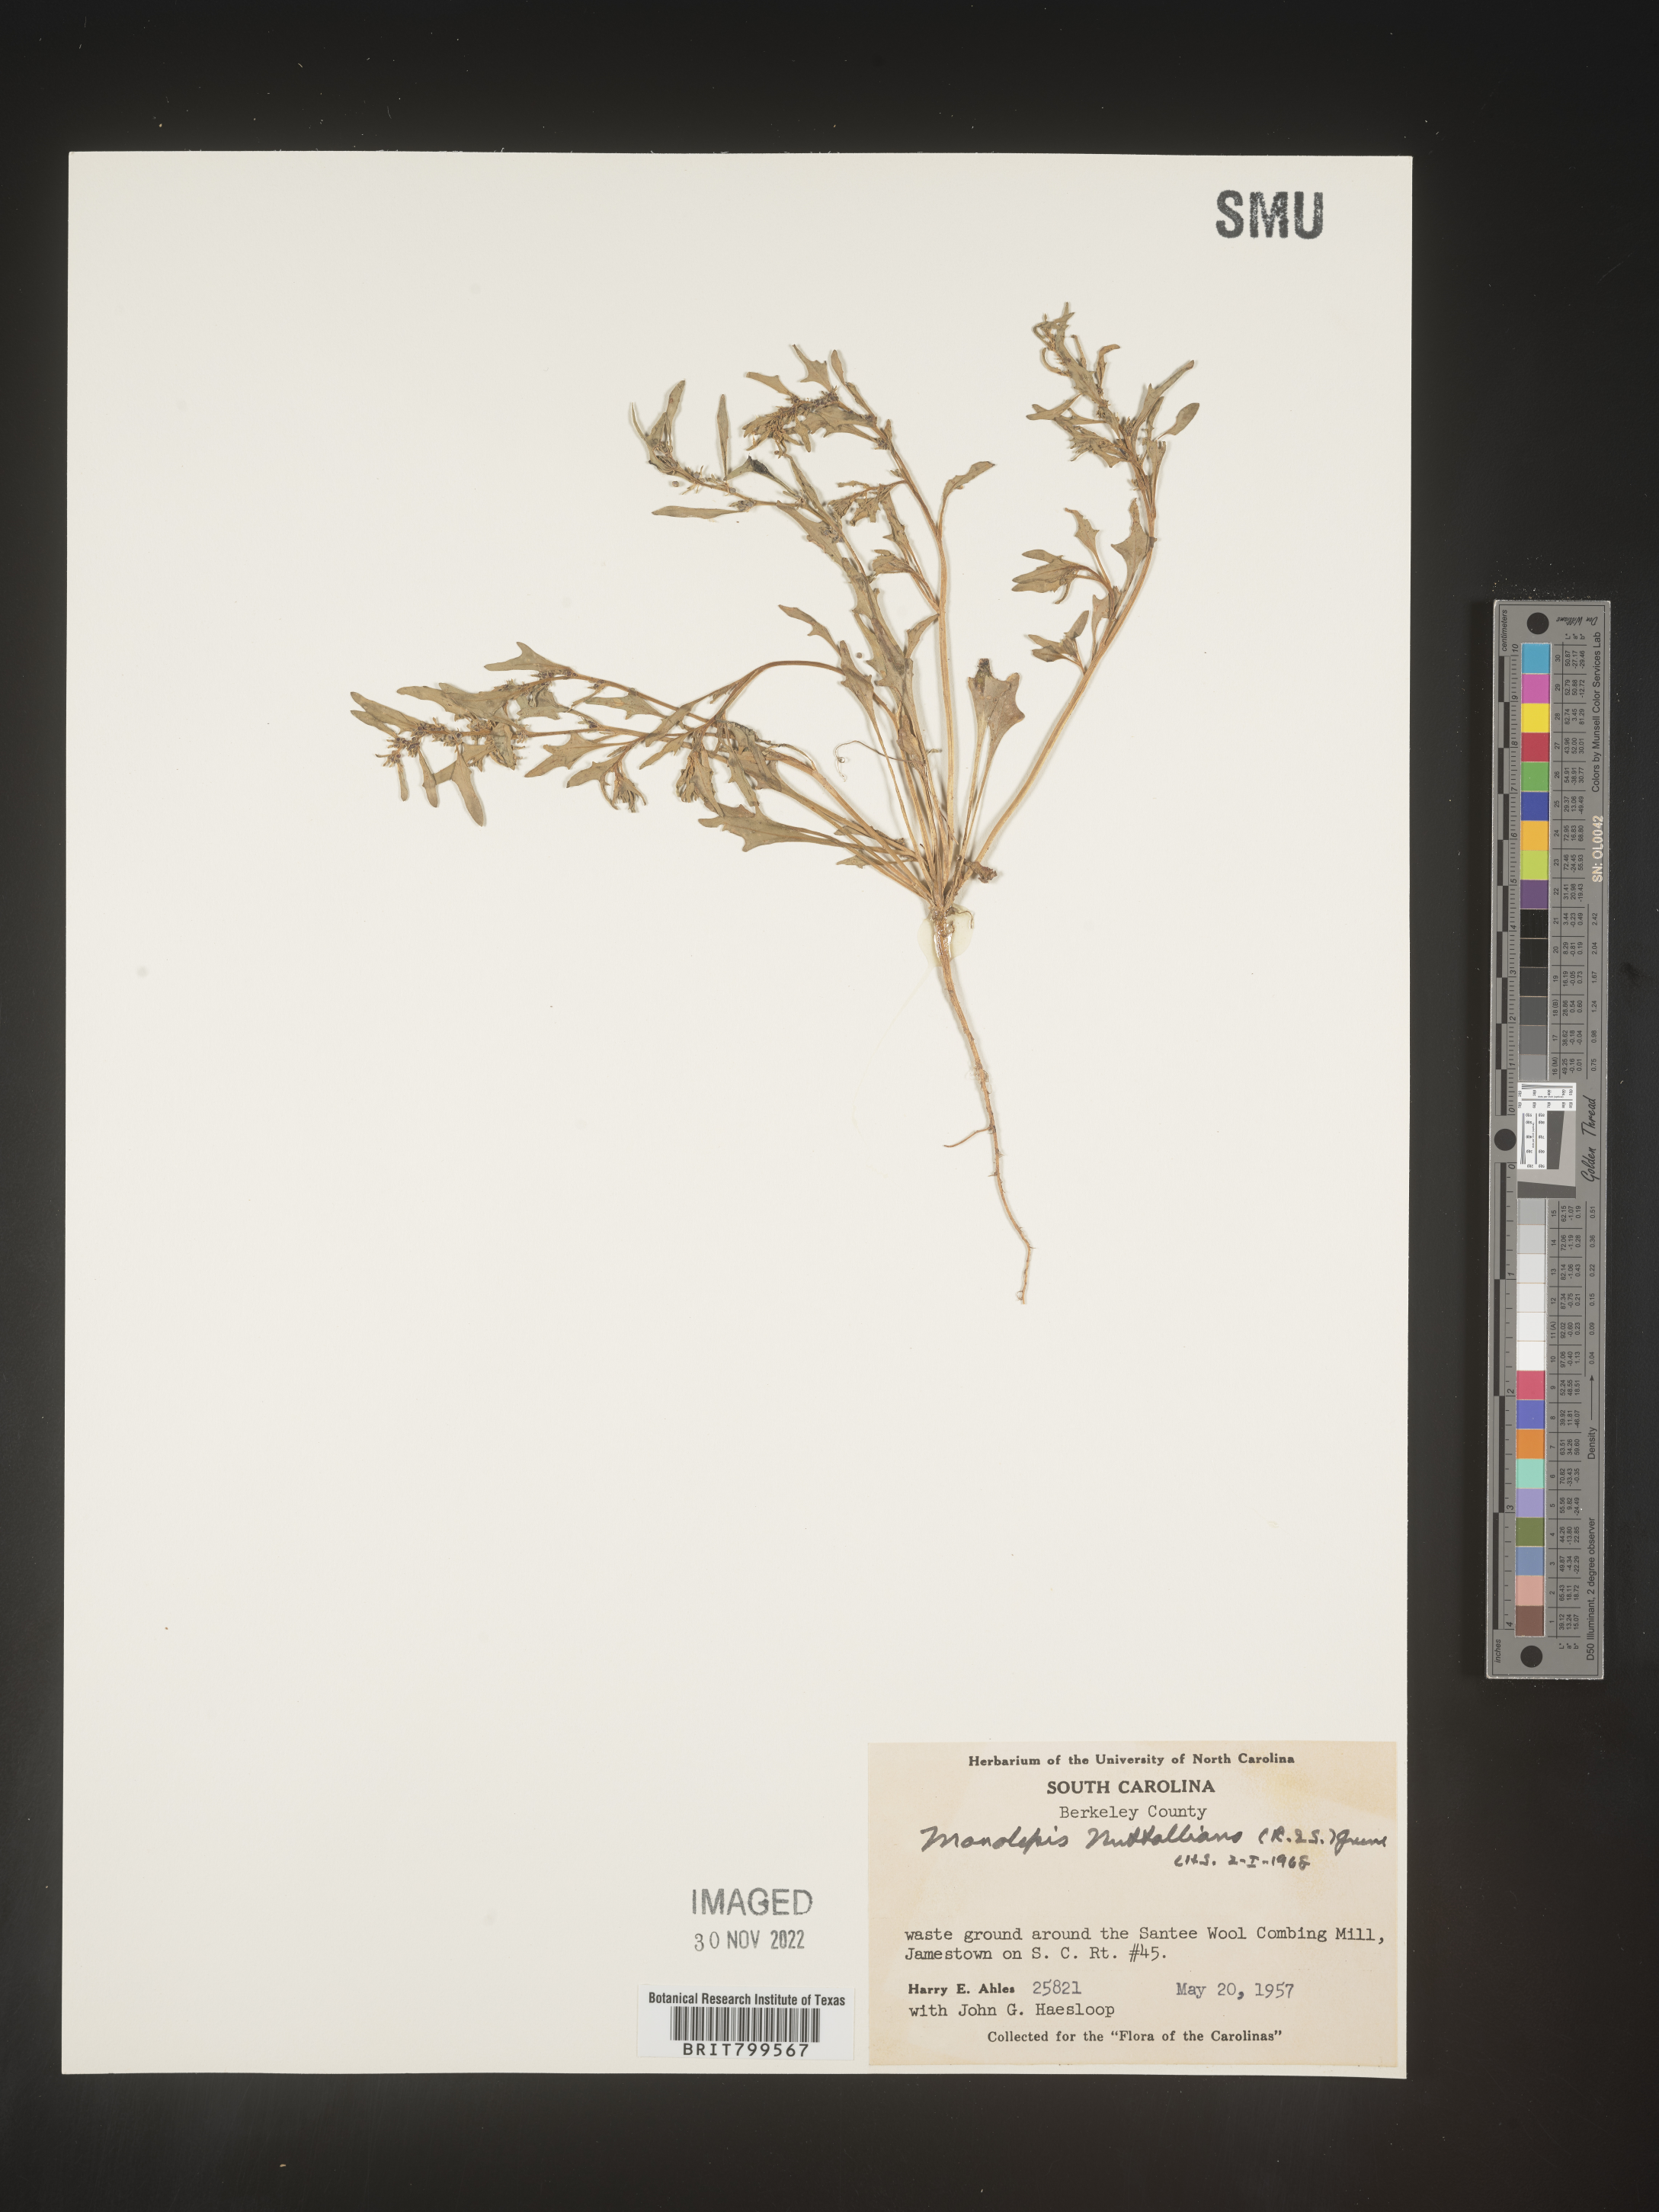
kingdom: Plantae
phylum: Tracheophyta
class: Magnoliopsida
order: Caryophyllales
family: Amaranthaceae
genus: Blitum
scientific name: Blitum
